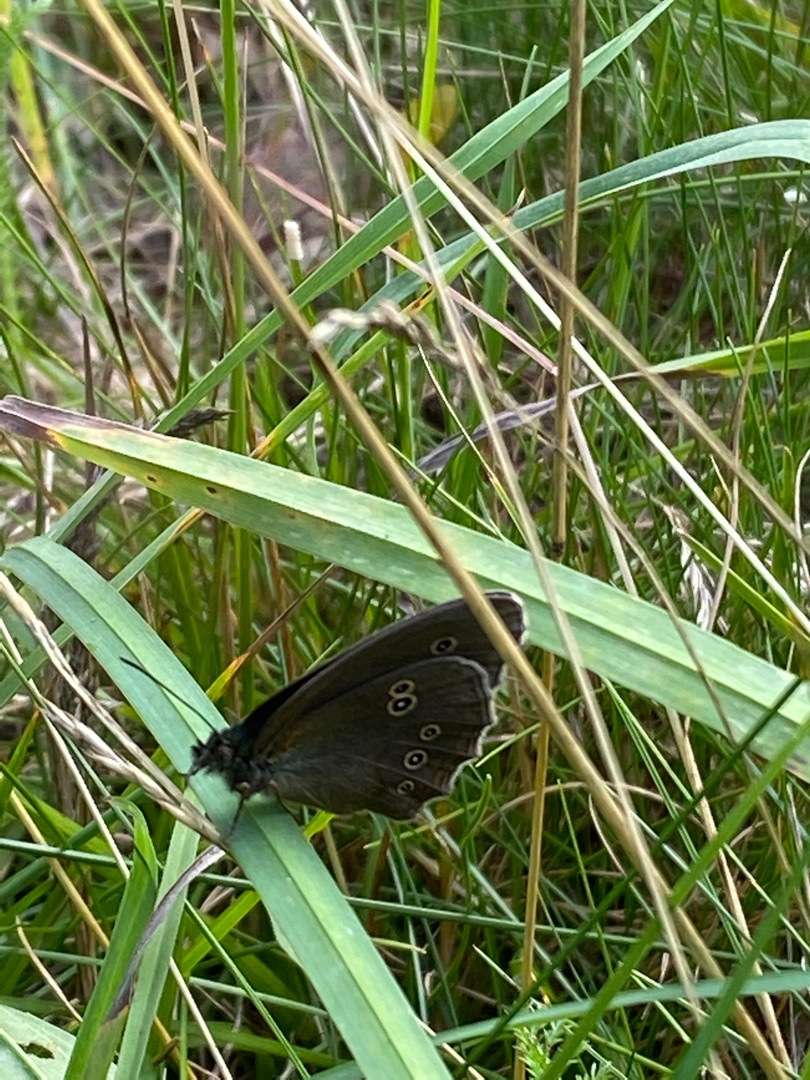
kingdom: Animalia
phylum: Arthropoda
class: Insecta
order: Lepidoptera
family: Nymphalidae
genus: Aphantopus
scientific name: Aphantopus hyperantus
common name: Engrandøje
